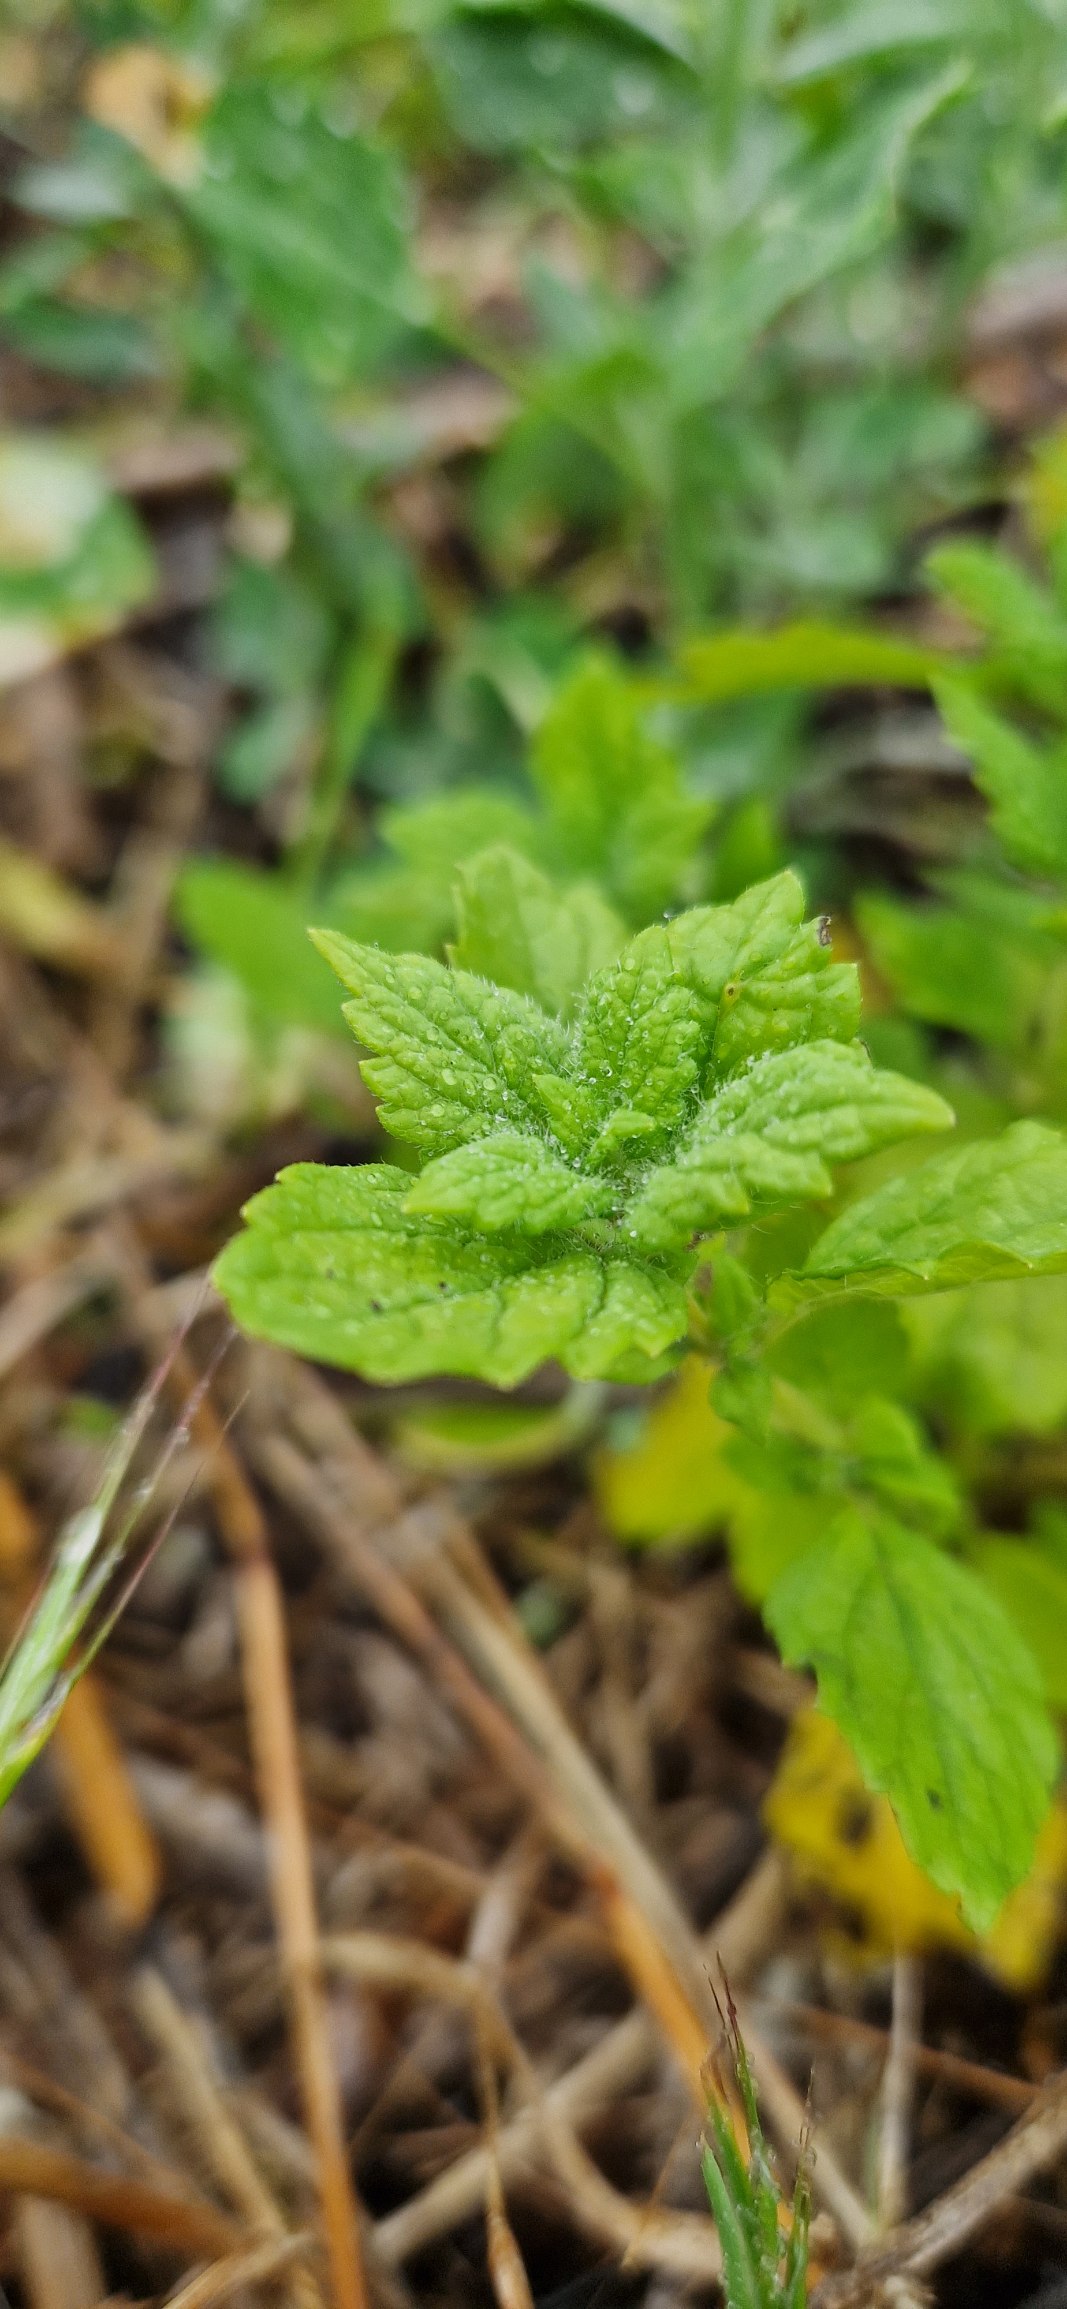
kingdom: Plantae
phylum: Tracheophyta
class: Magnoliopsida
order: Lamiales
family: Lamiaceae
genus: Melissa
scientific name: Melissa officinalis
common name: Citronmelisse
